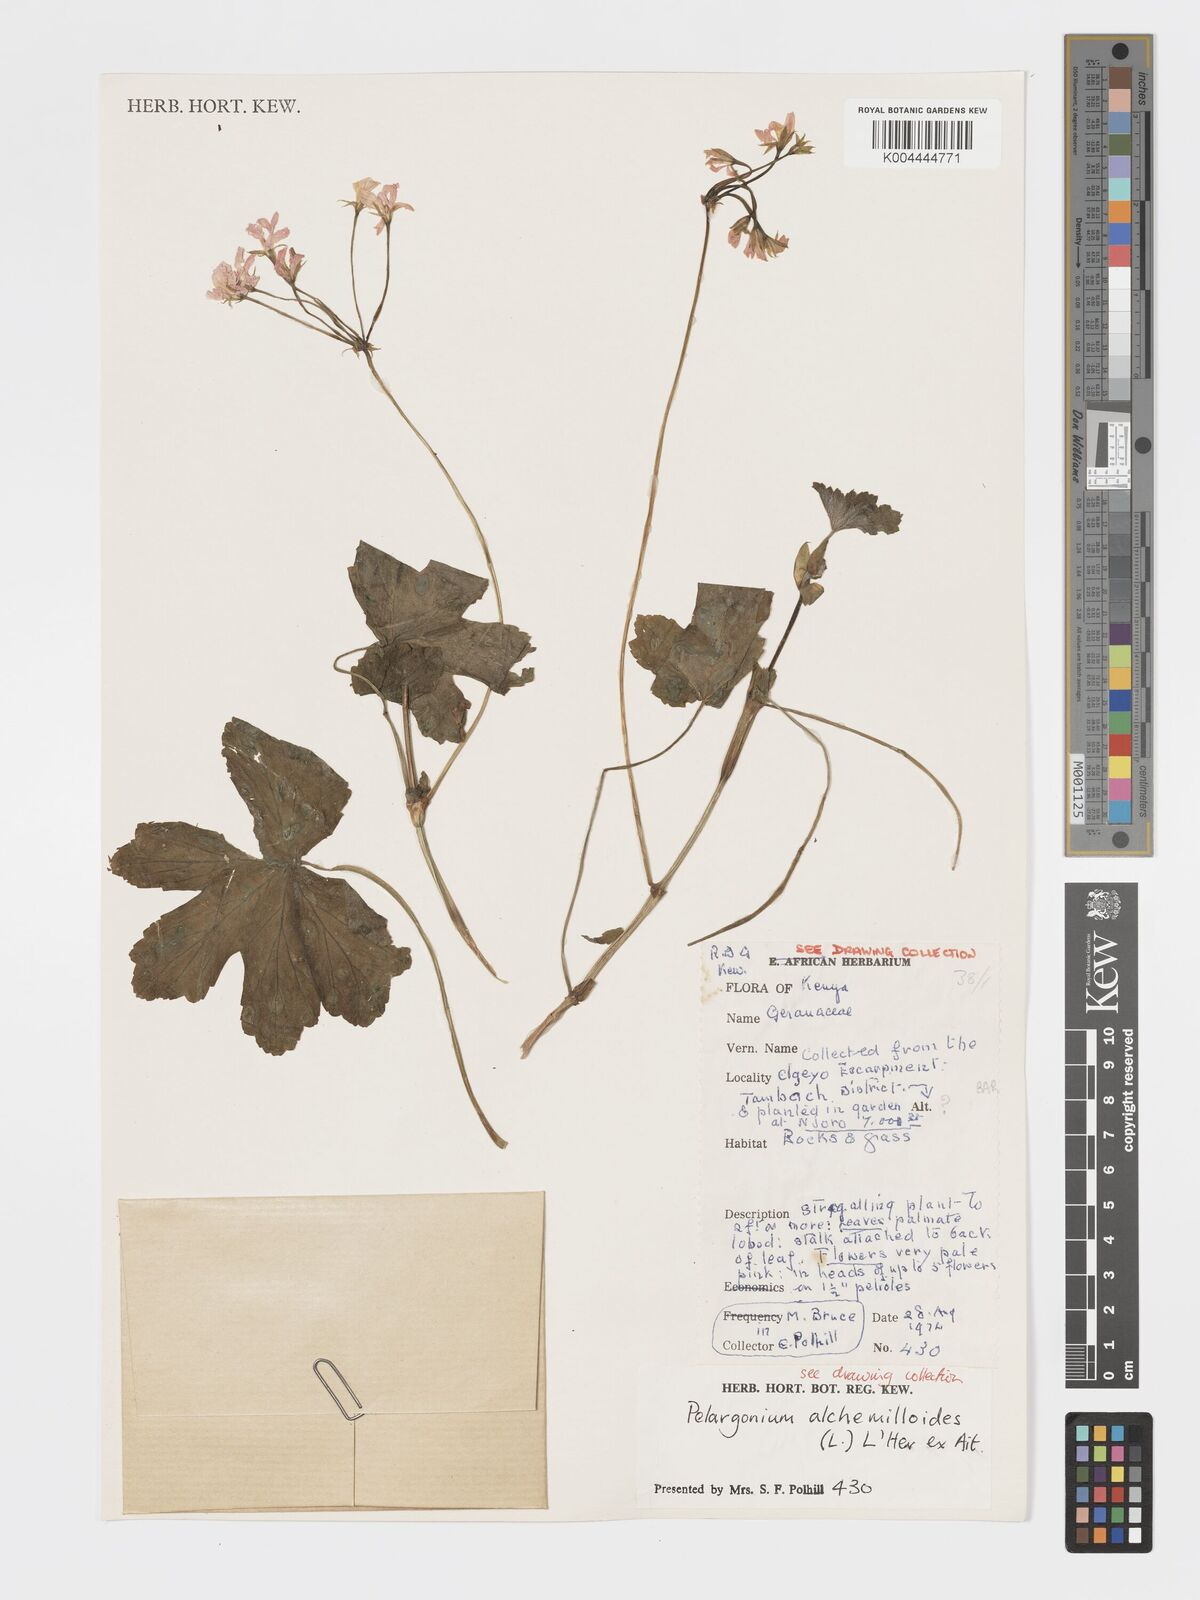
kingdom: Plantae
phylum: Tracheophyta
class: Magnoliopsida
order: Geraniales
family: Geraniaceae
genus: Pelargonium
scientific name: Pelargonium alchemilloides
